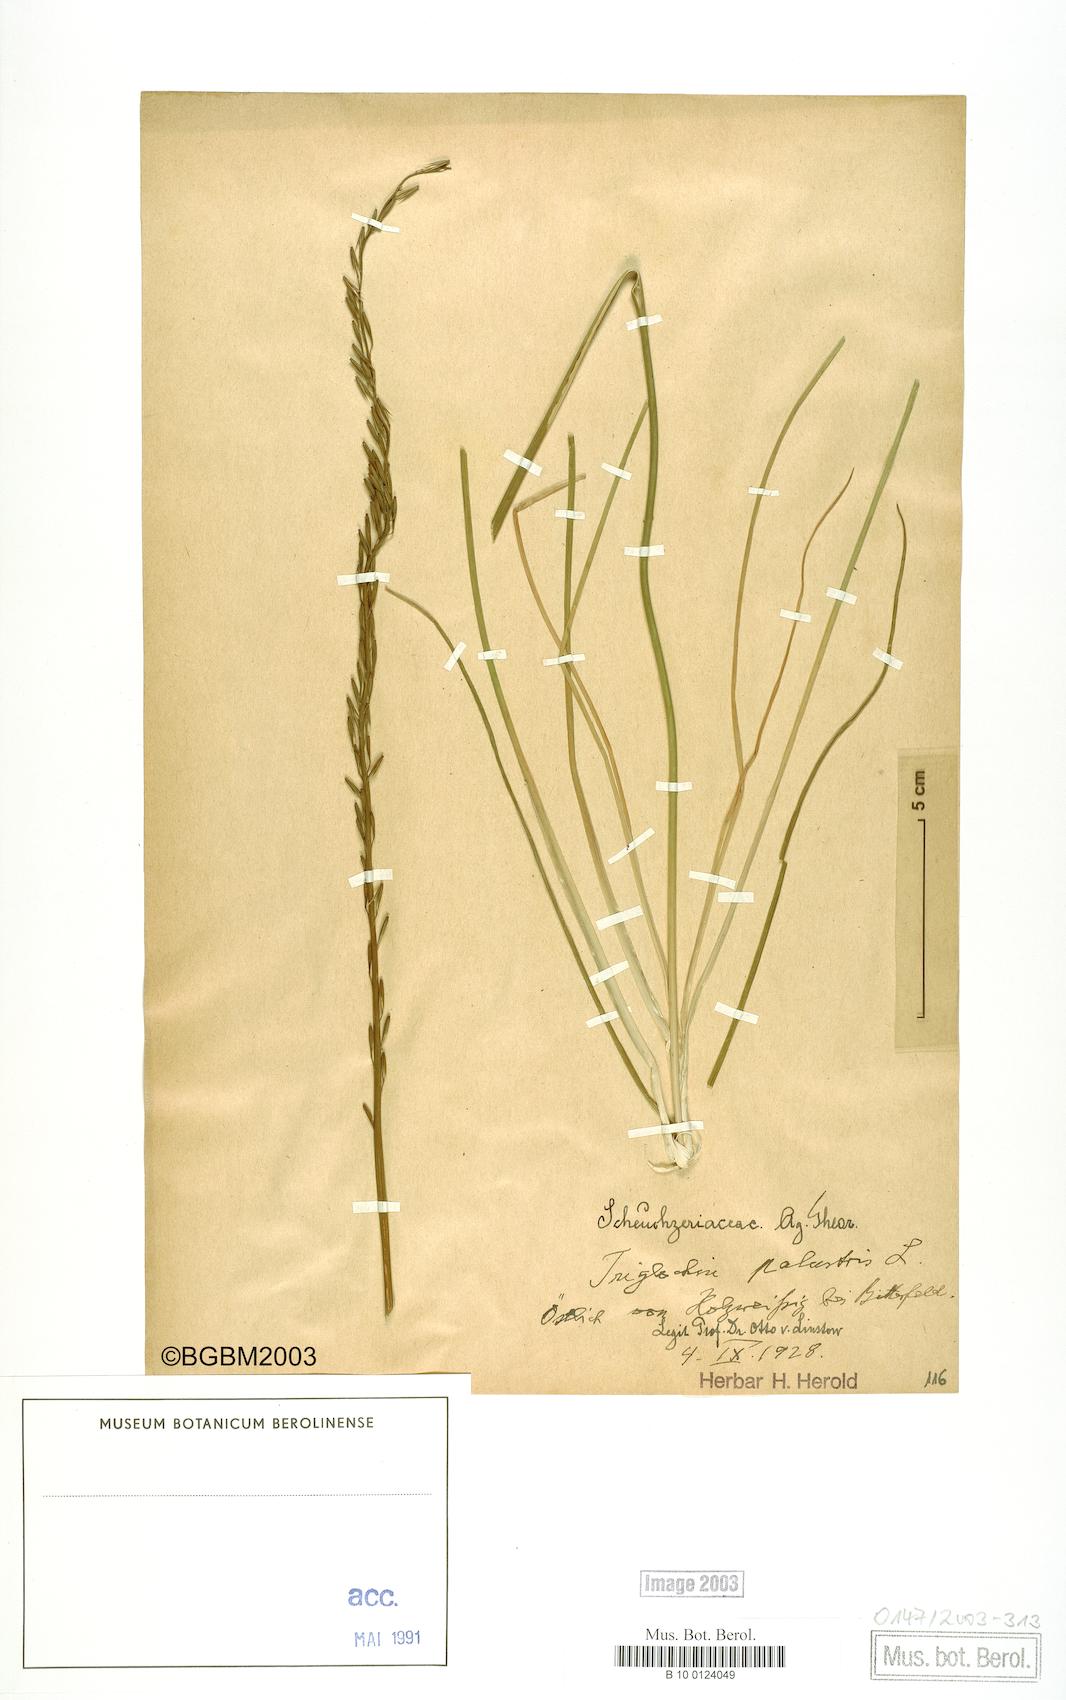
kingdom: Plantae
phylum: Tracheophyta
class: Liliopsida
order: Alismatales
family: Juncaginaceae
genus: Triglochin
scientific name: Triglochin palustris
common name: Marsh arrowgrass
